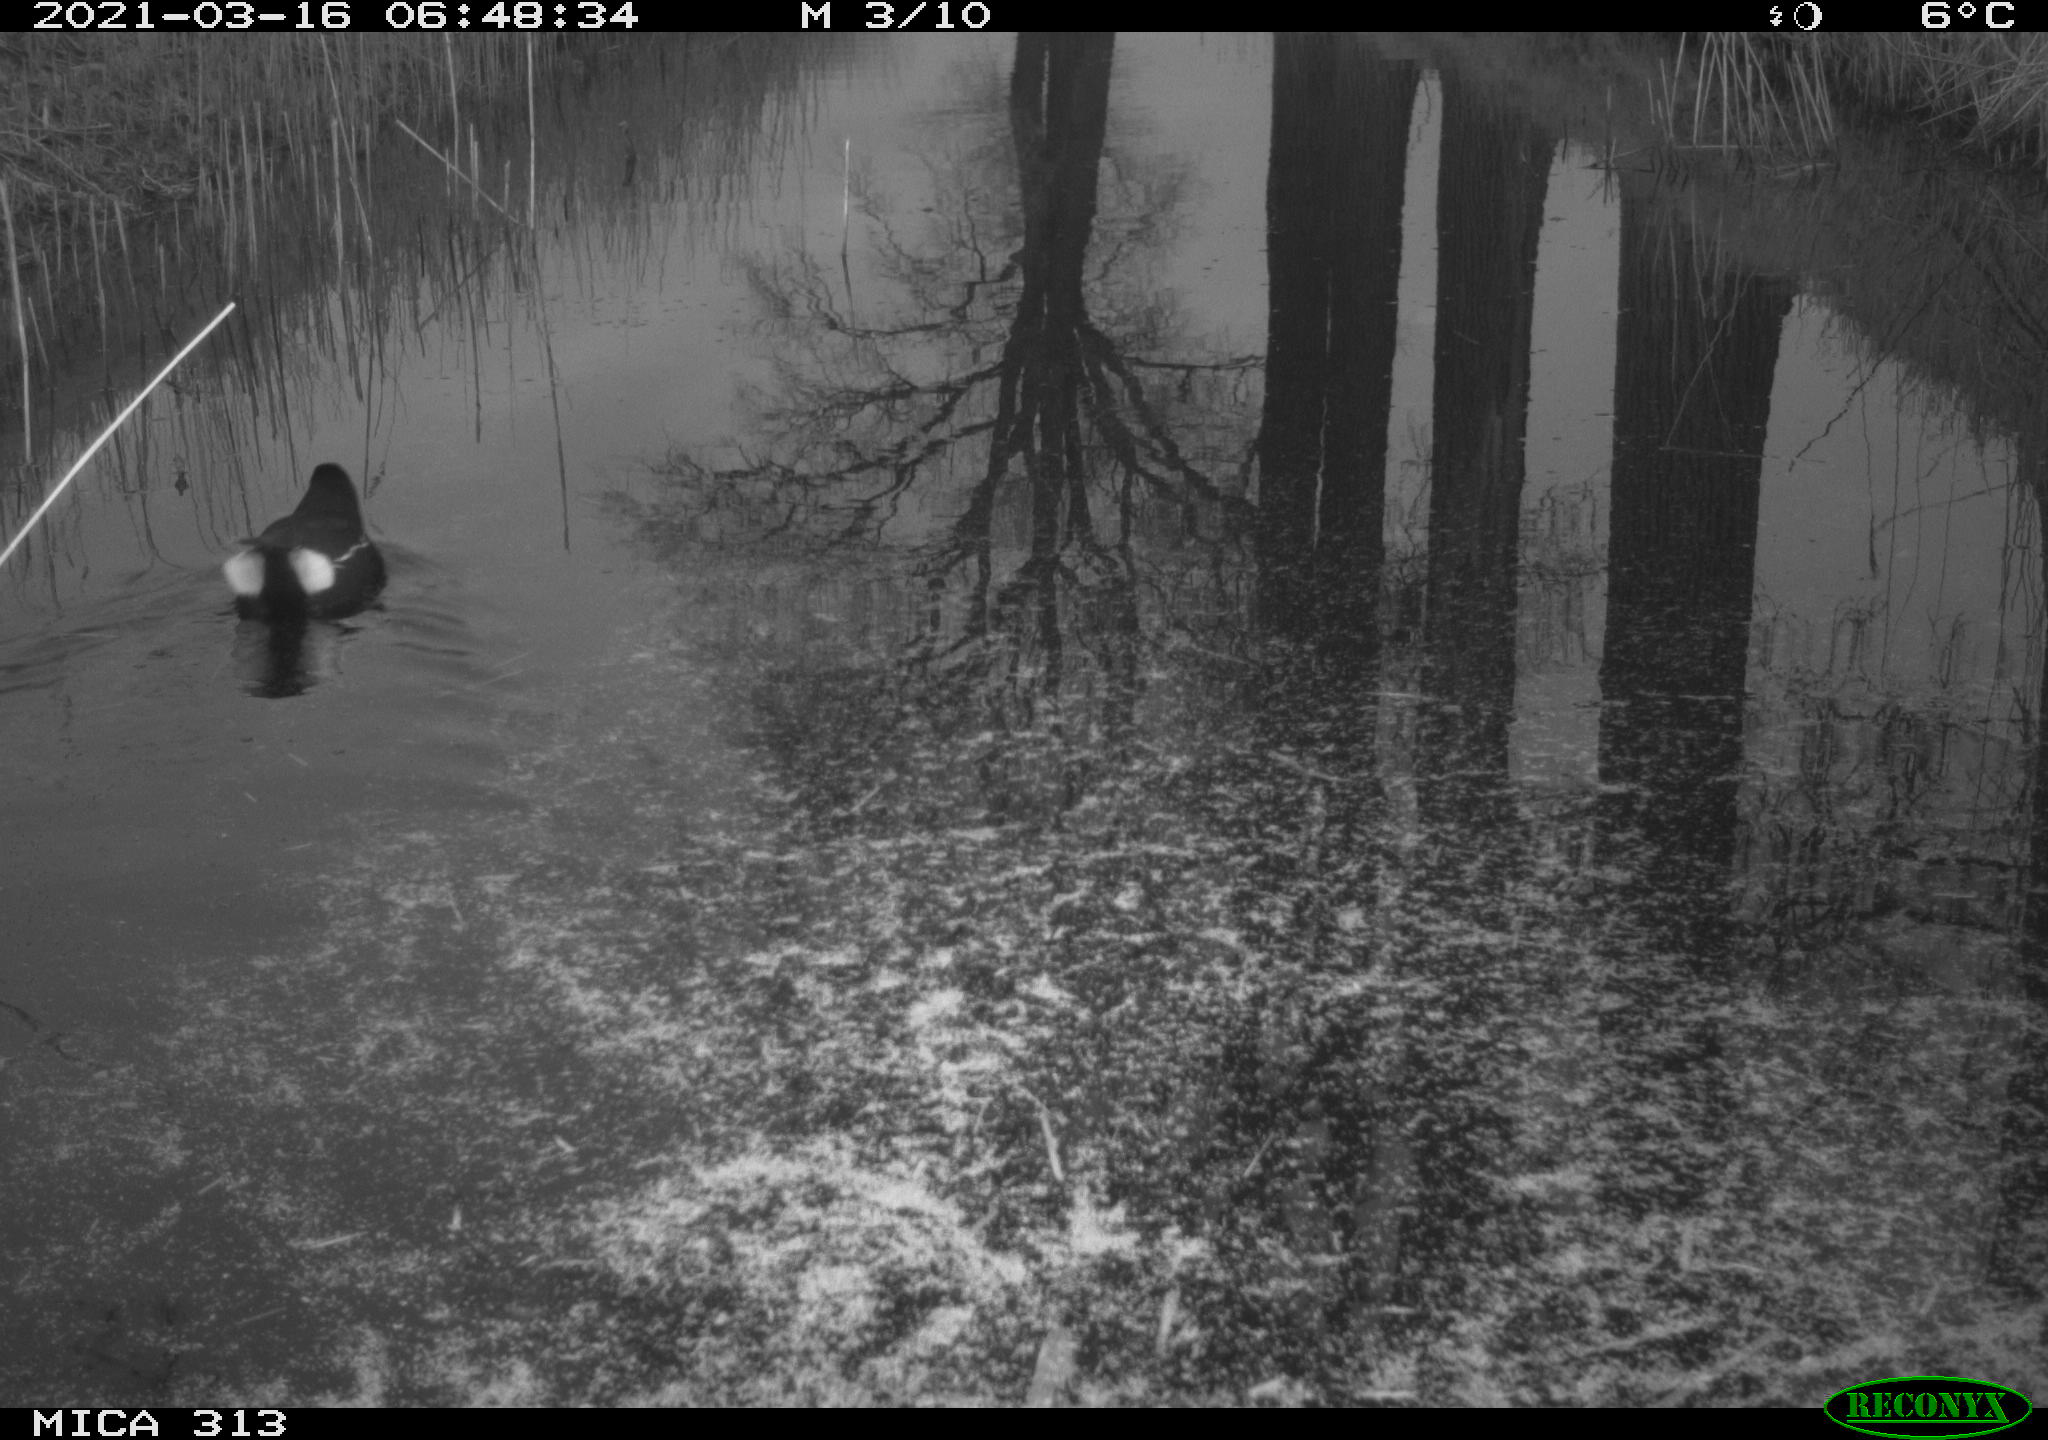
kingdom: Animalia
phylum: Chordata
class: Aves
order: Gruiformes
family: Rallidae
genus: Gallinula
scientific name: Gallinula chloropus
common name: Common moorhen
